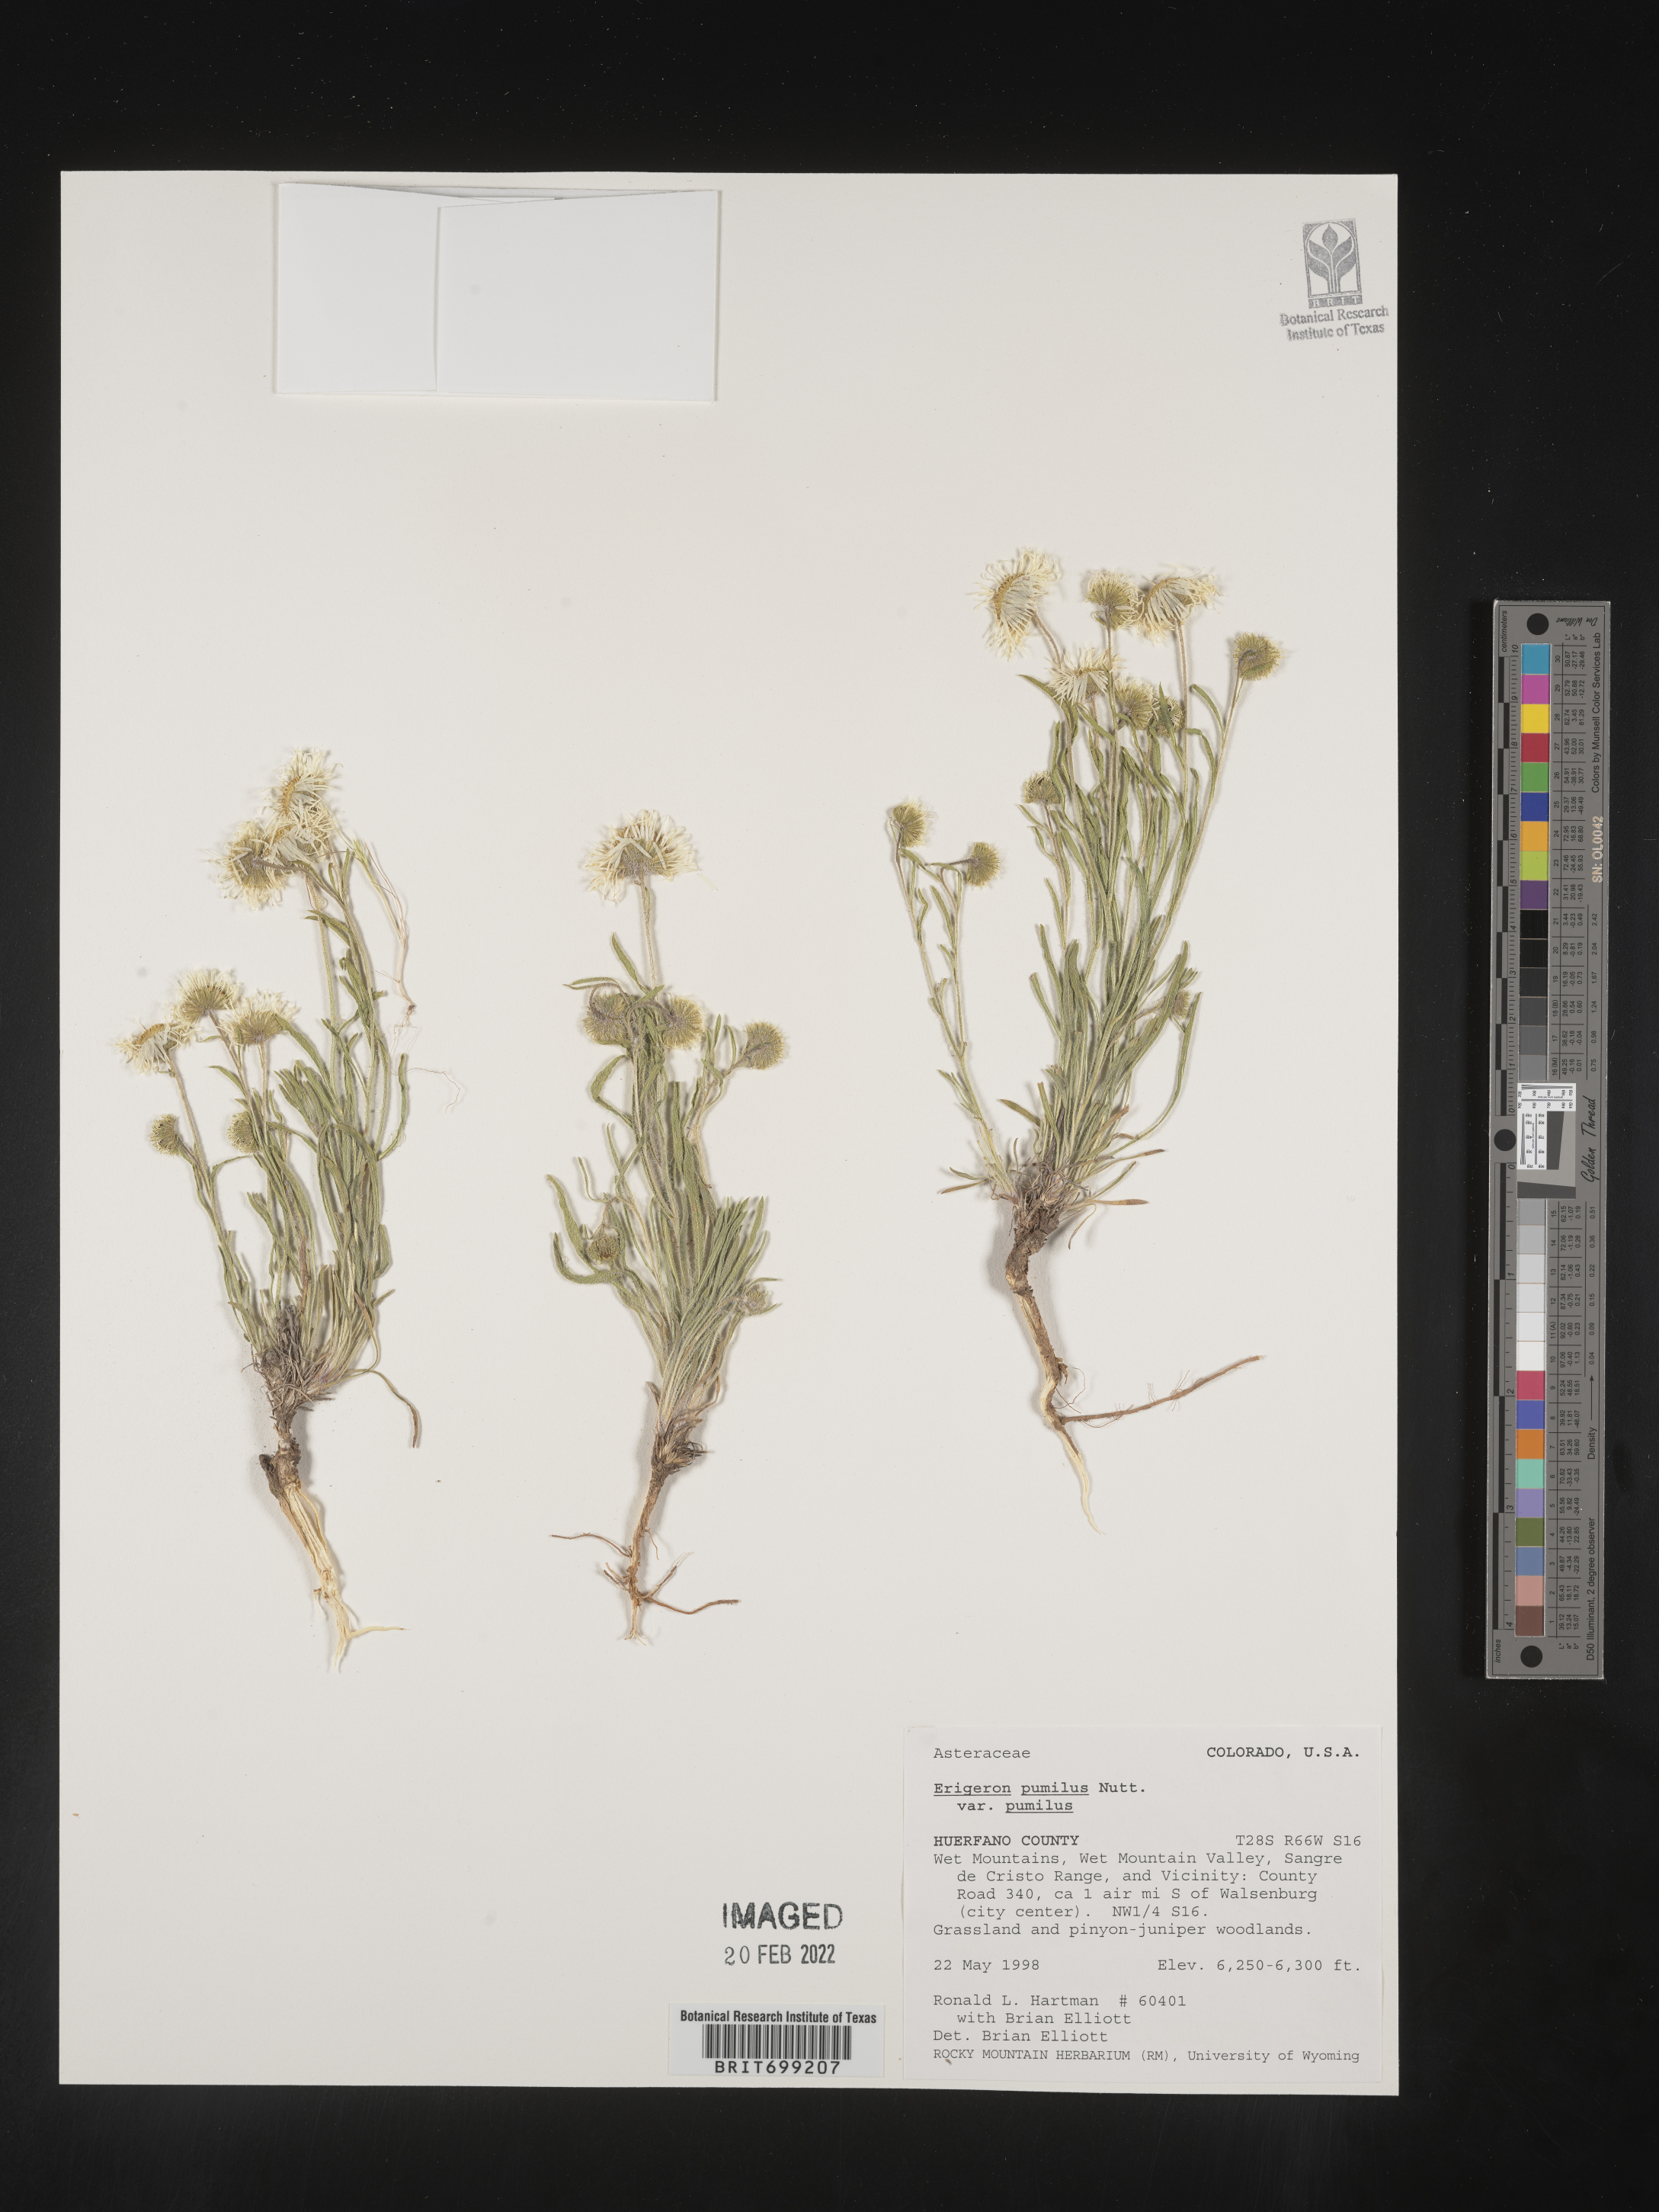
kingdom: Plantae
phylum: Tracheophyta
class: Magnoliopsida
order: Asterales
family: Asteraceae
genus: Erigeron
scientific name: Erigeron pumilus
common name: Shaggy fleabane
